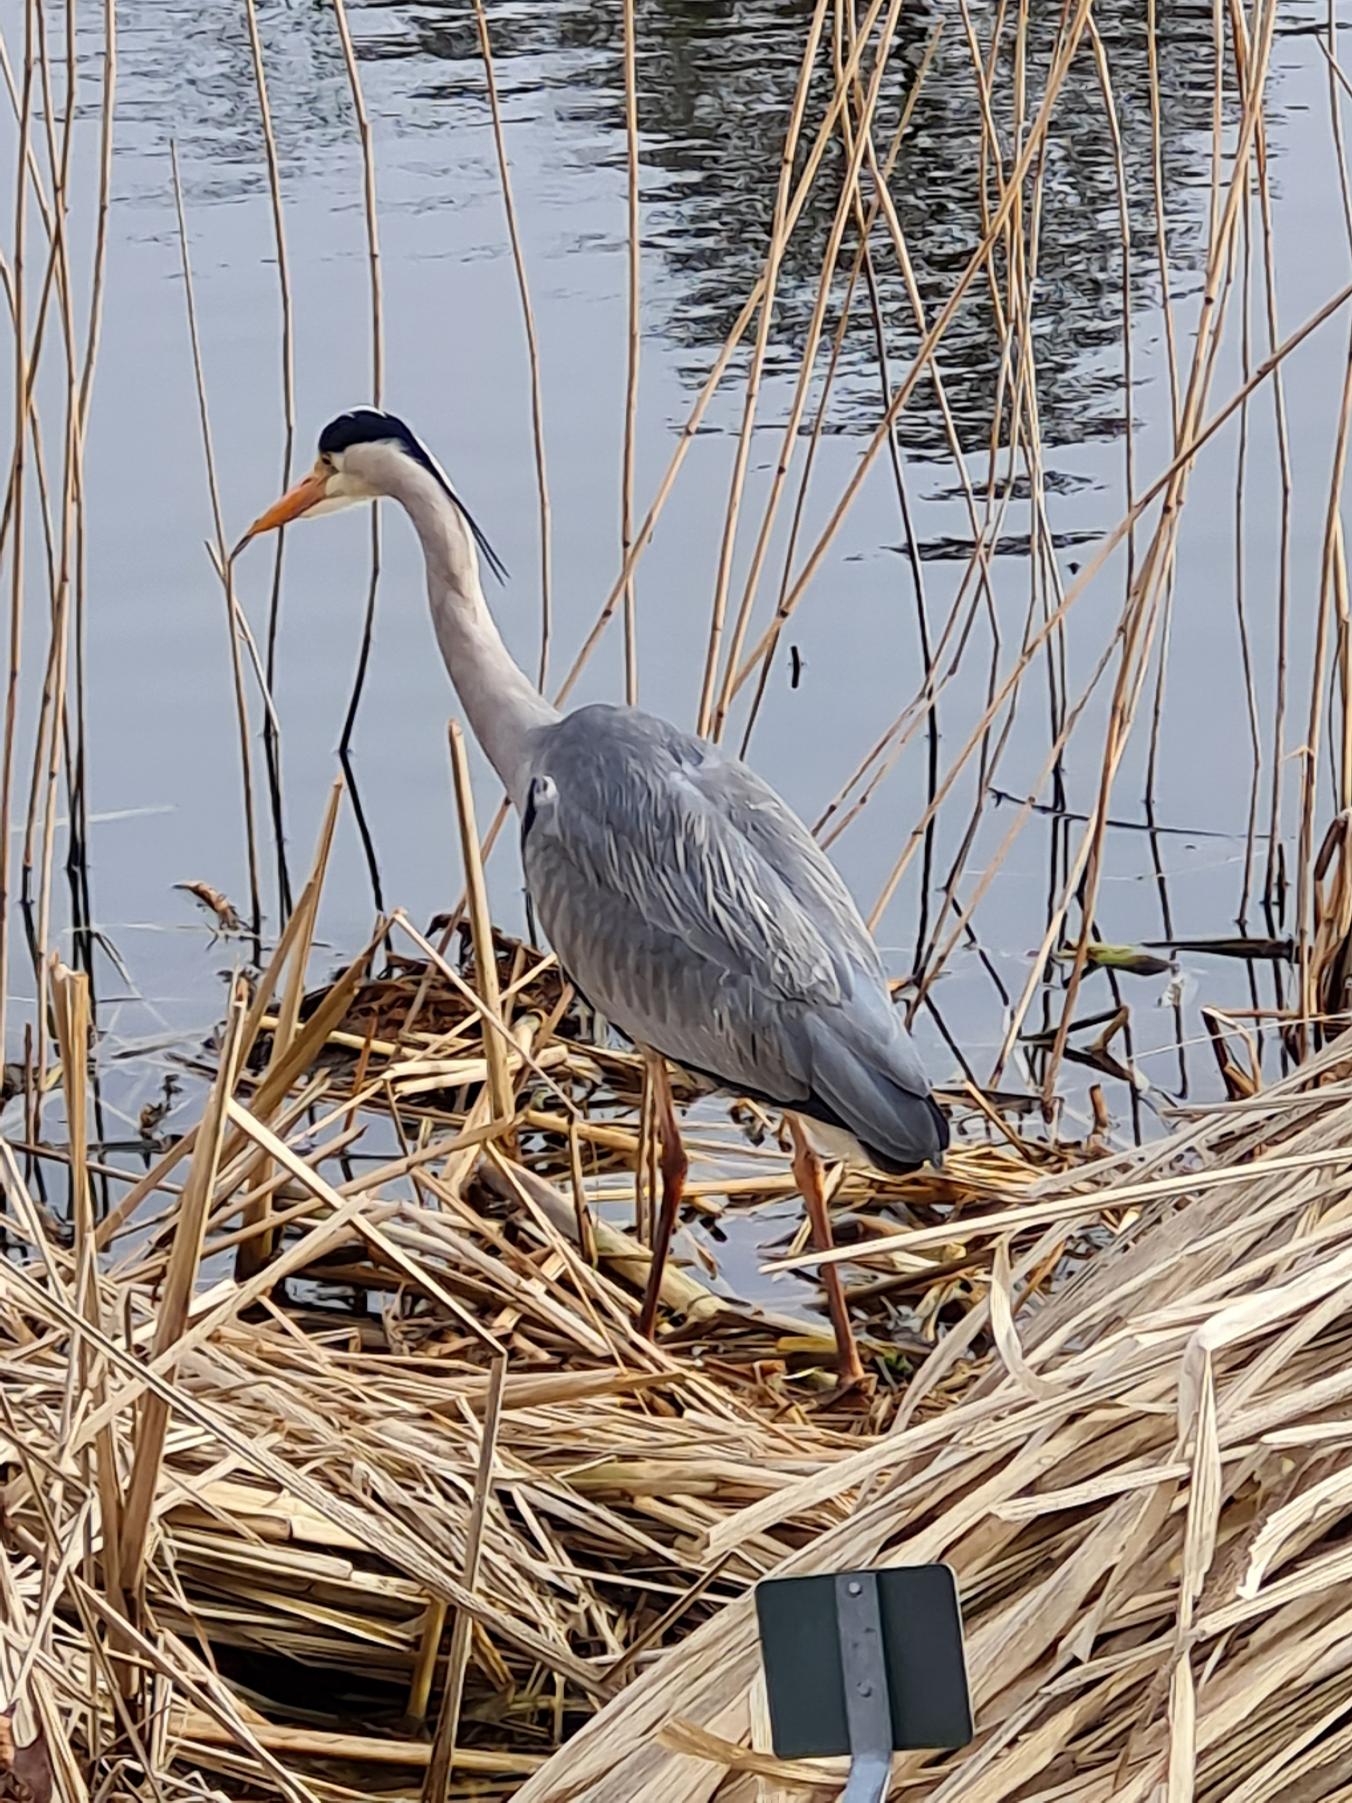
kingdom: Animalia
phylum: Chordata
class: Aves
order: Pelecaniformes
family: Ardeidae
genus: Ardea
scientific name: Ardea cinerea
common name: Fiskehejre
